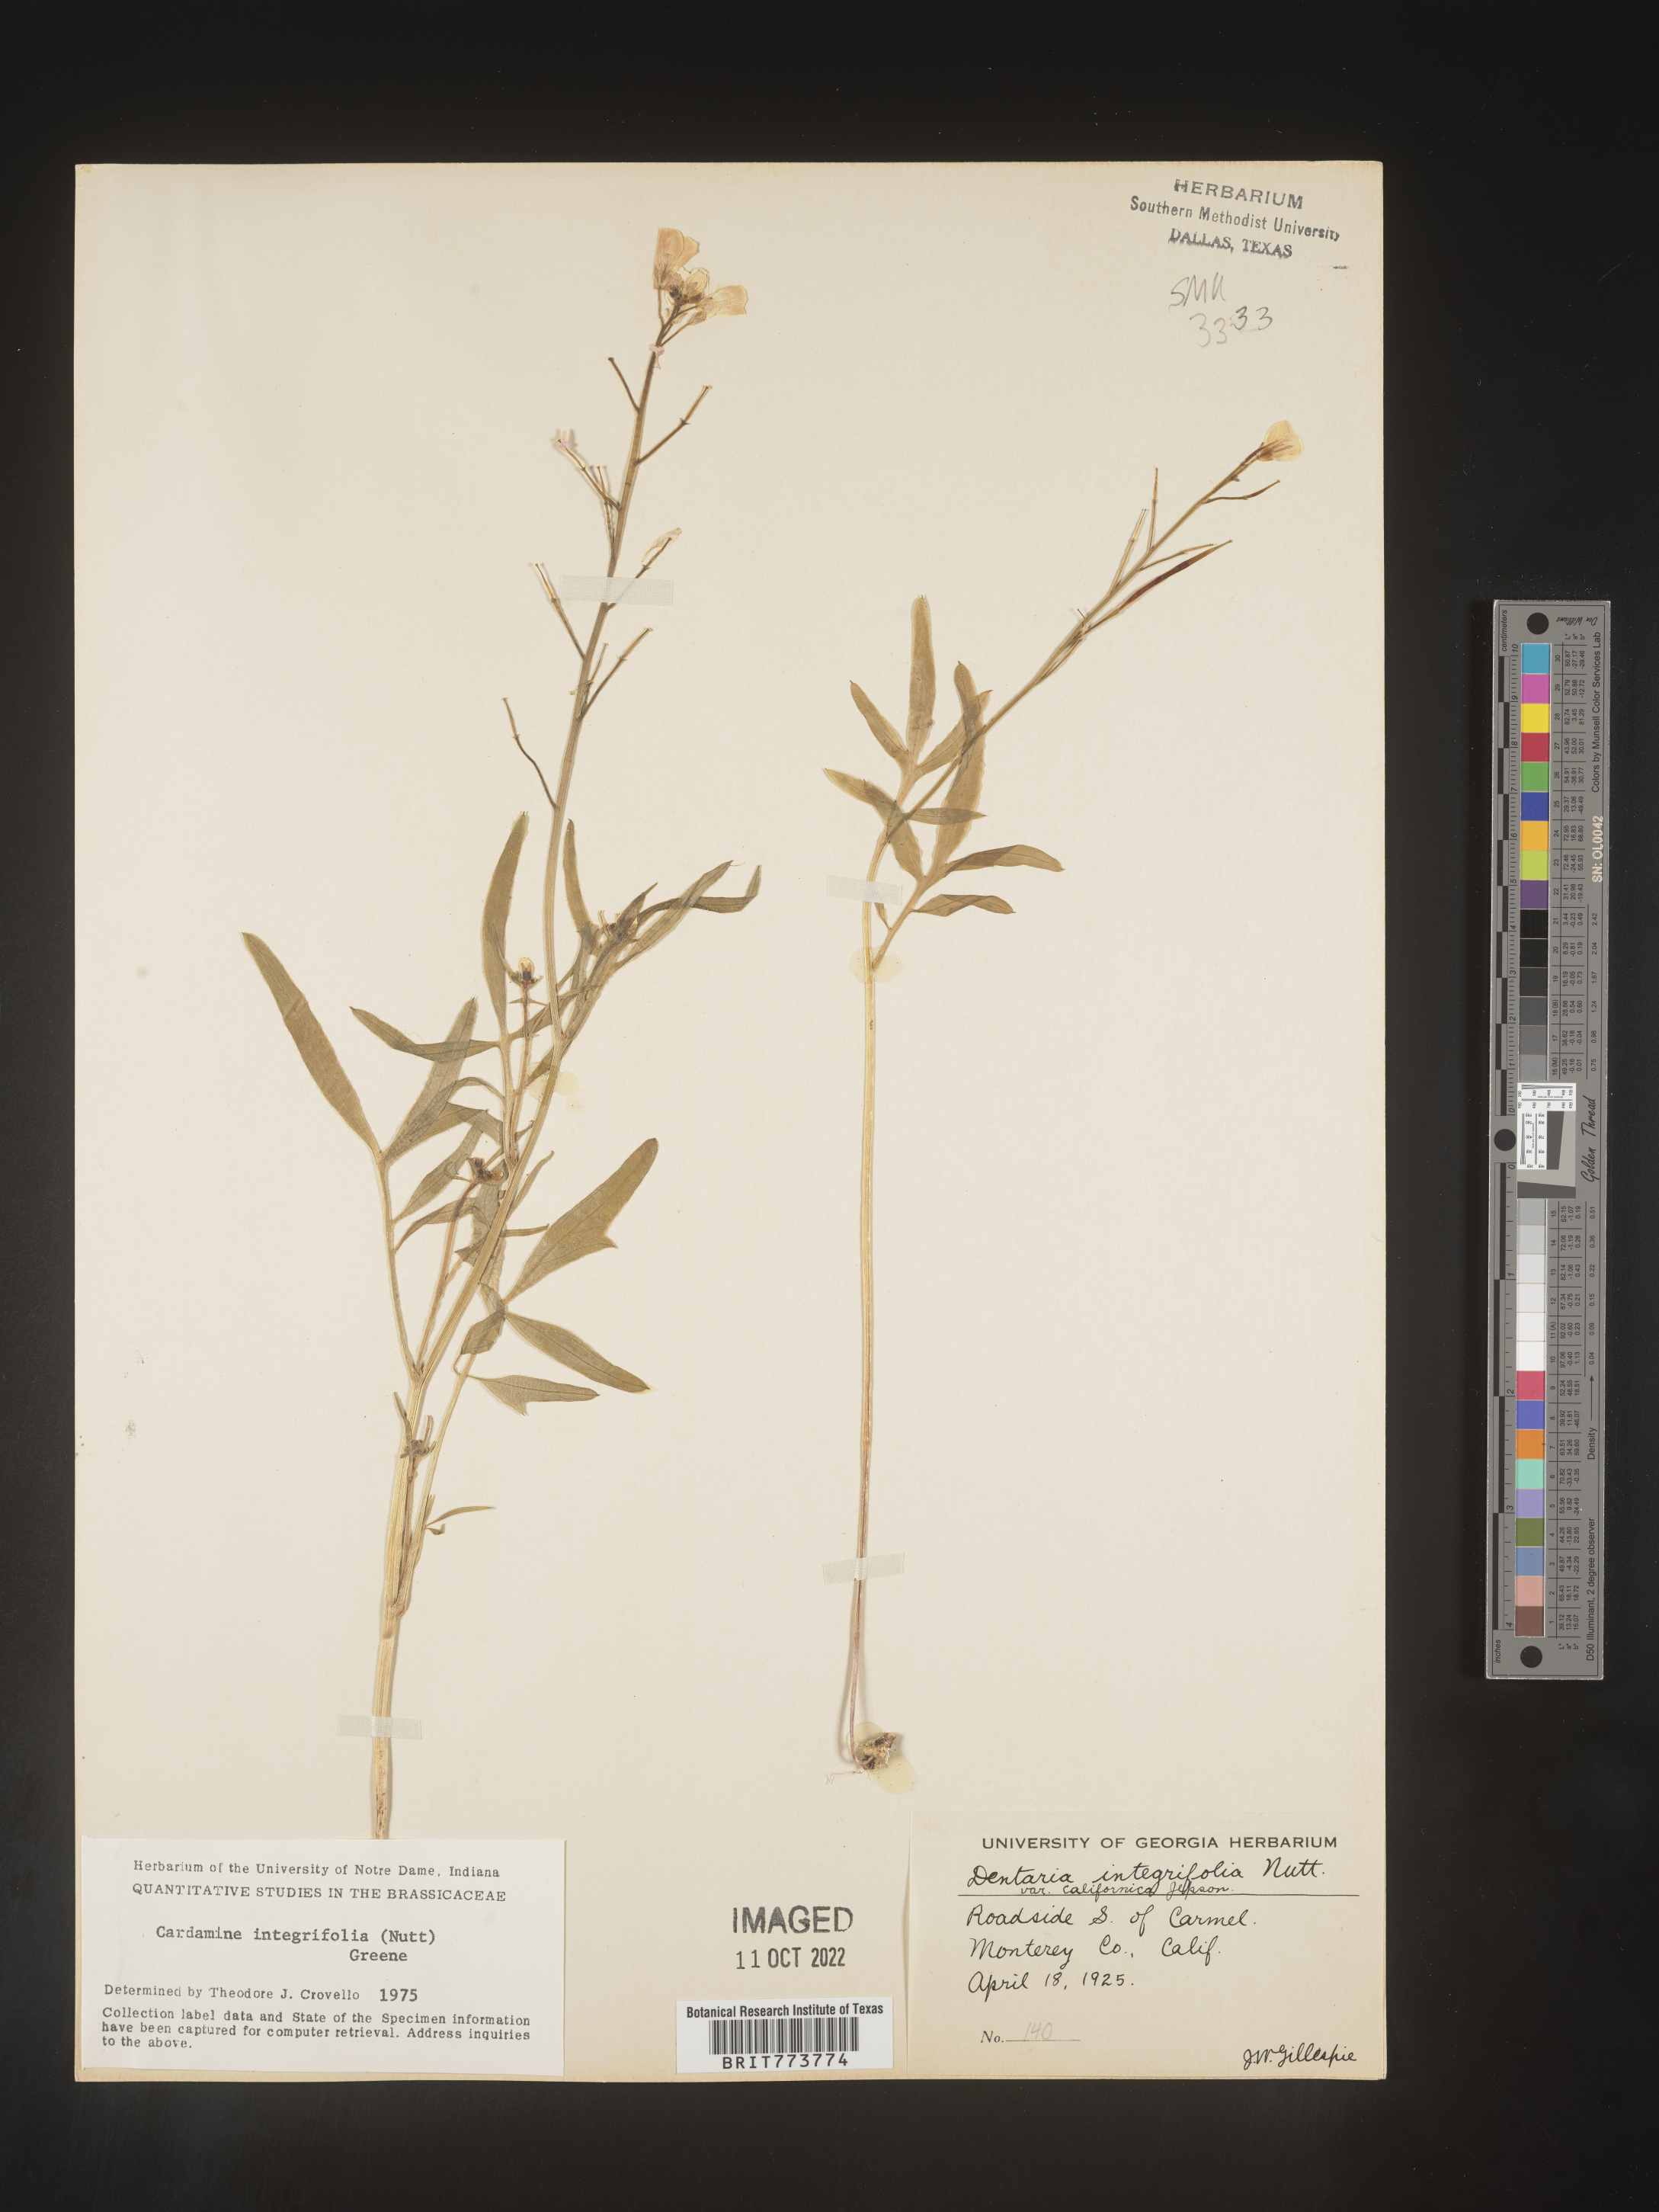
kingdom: Plantae
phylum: Tracheophyta
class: Magnoliopsida
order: Brassicales
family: Brassicaceae
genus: Cardamine
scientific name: Cardamine bellidifolia
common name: Alpine bittercress
